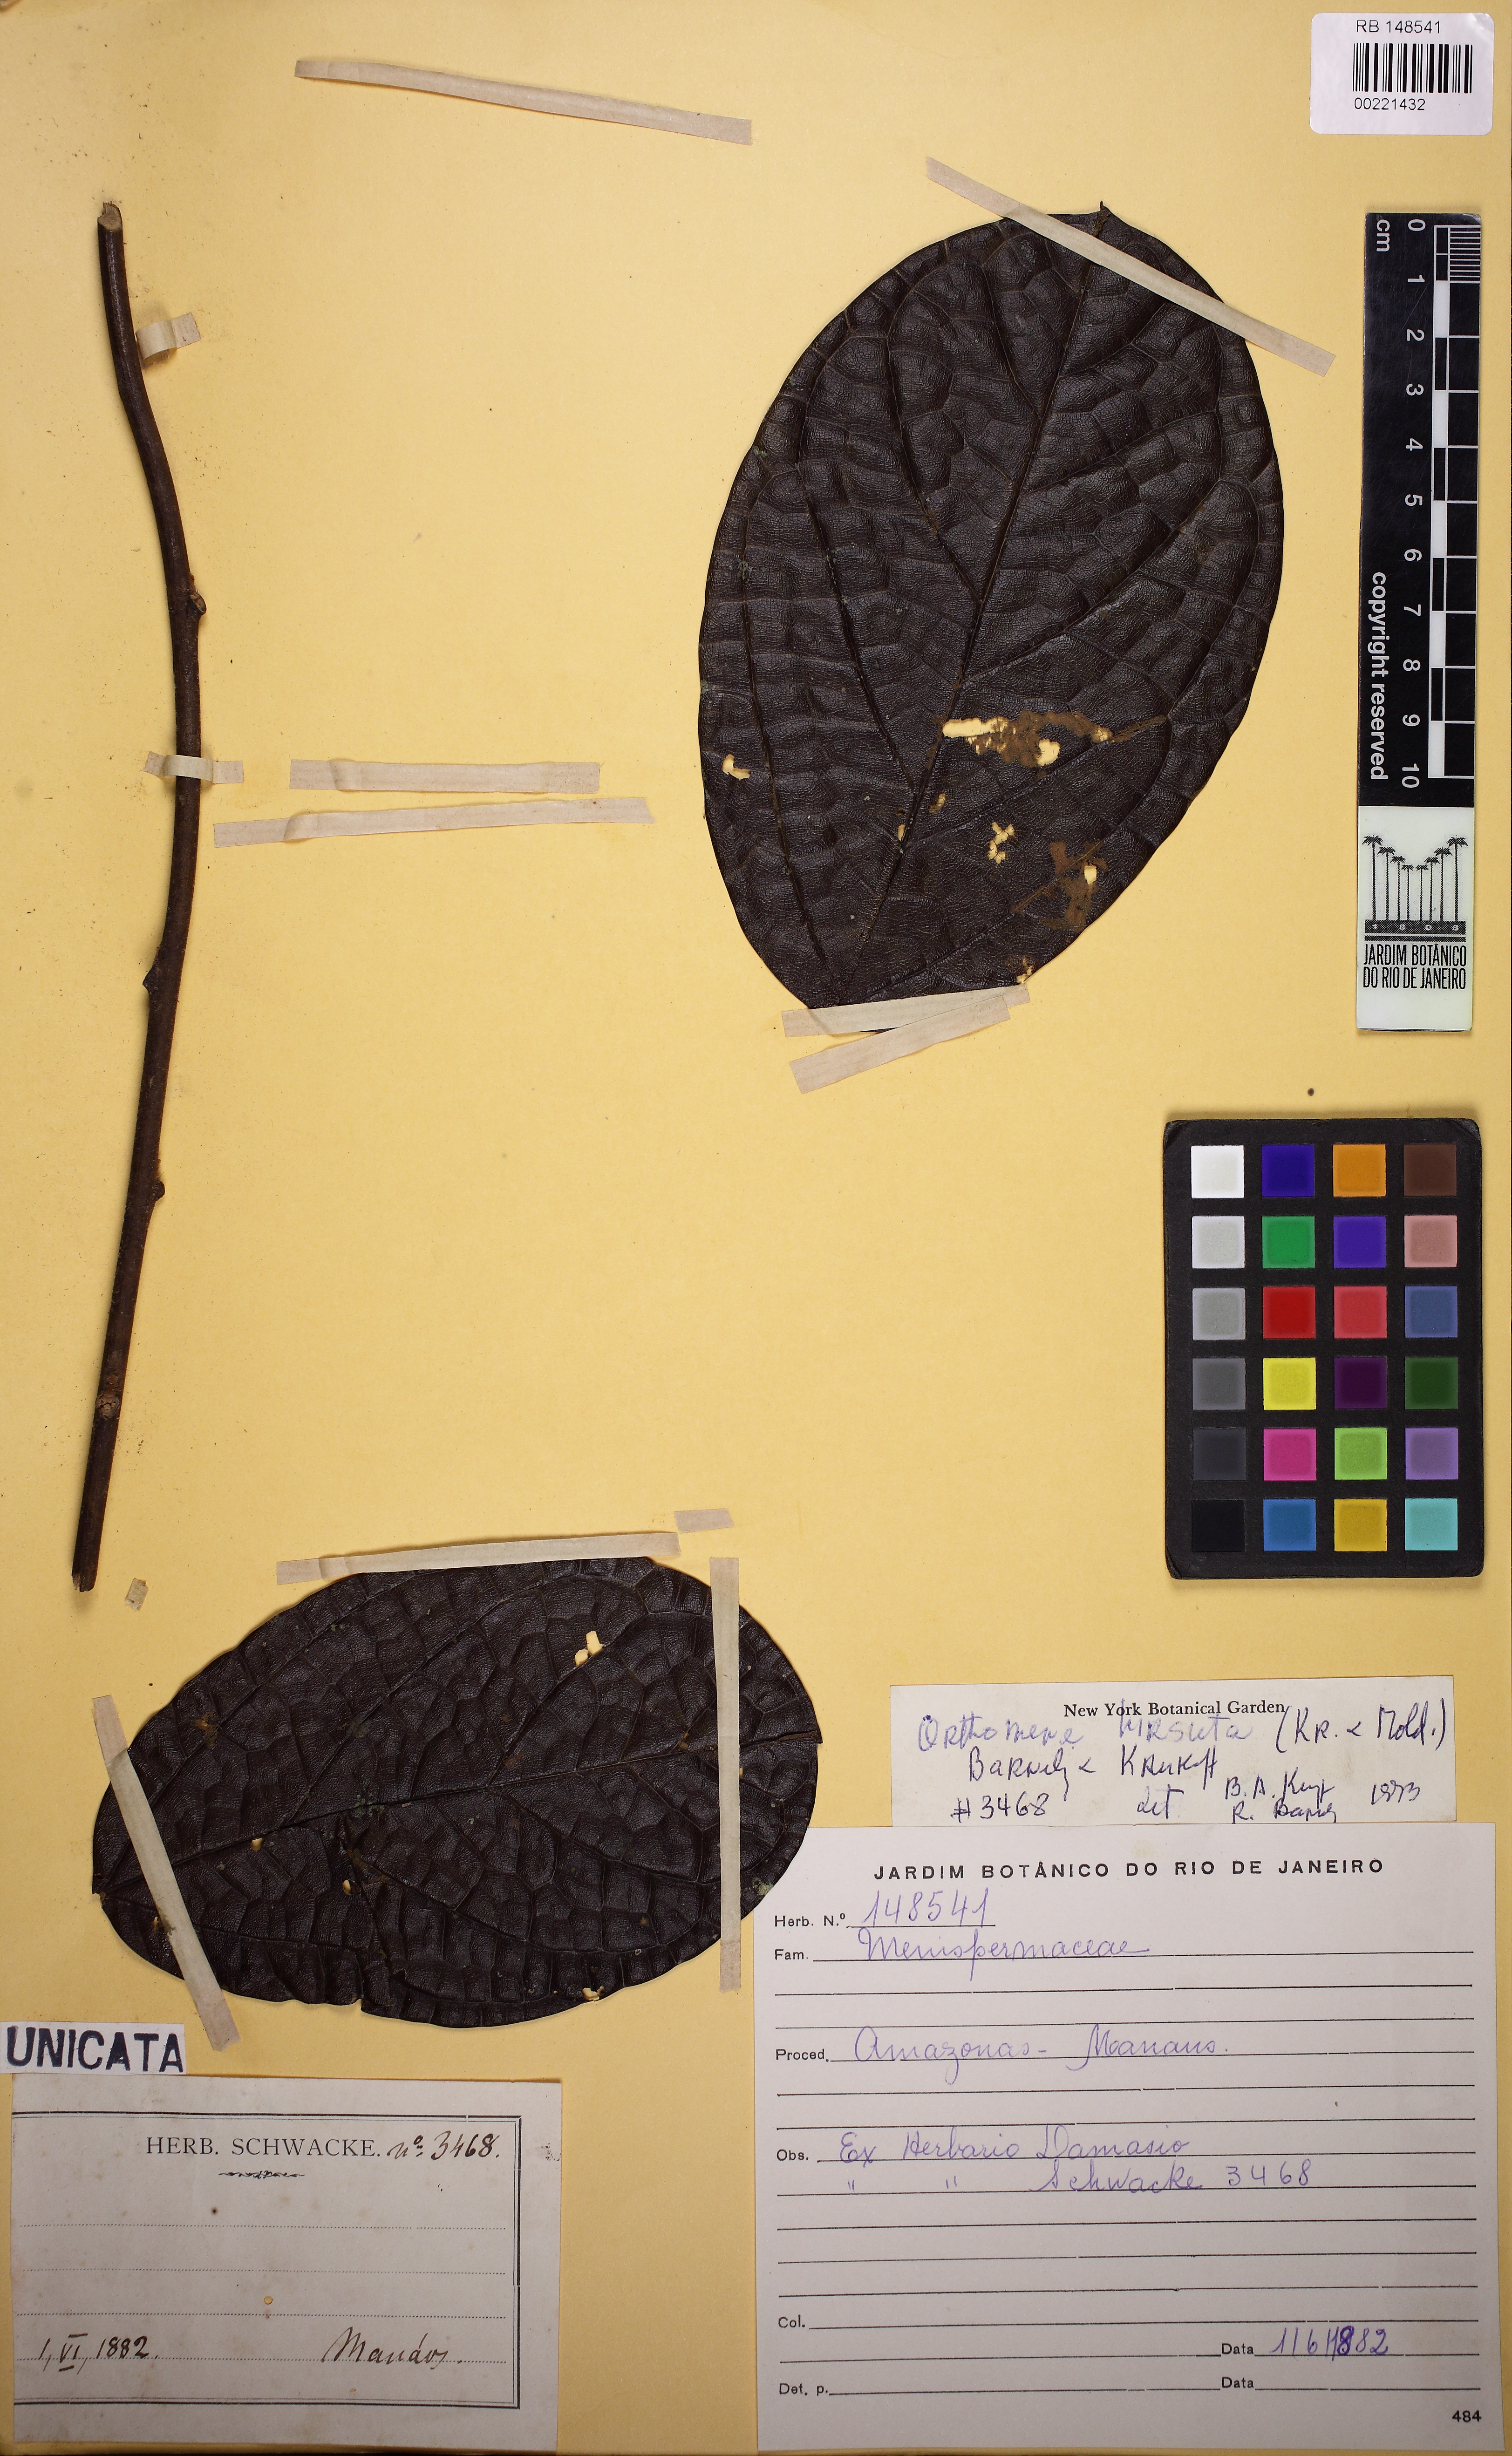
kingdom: Plantae
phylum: Tracheophyta
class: Magnoliopsida
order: Ranunculales
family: Menispermaceae
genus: Orthomene
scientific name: Orthomene hirsuta
